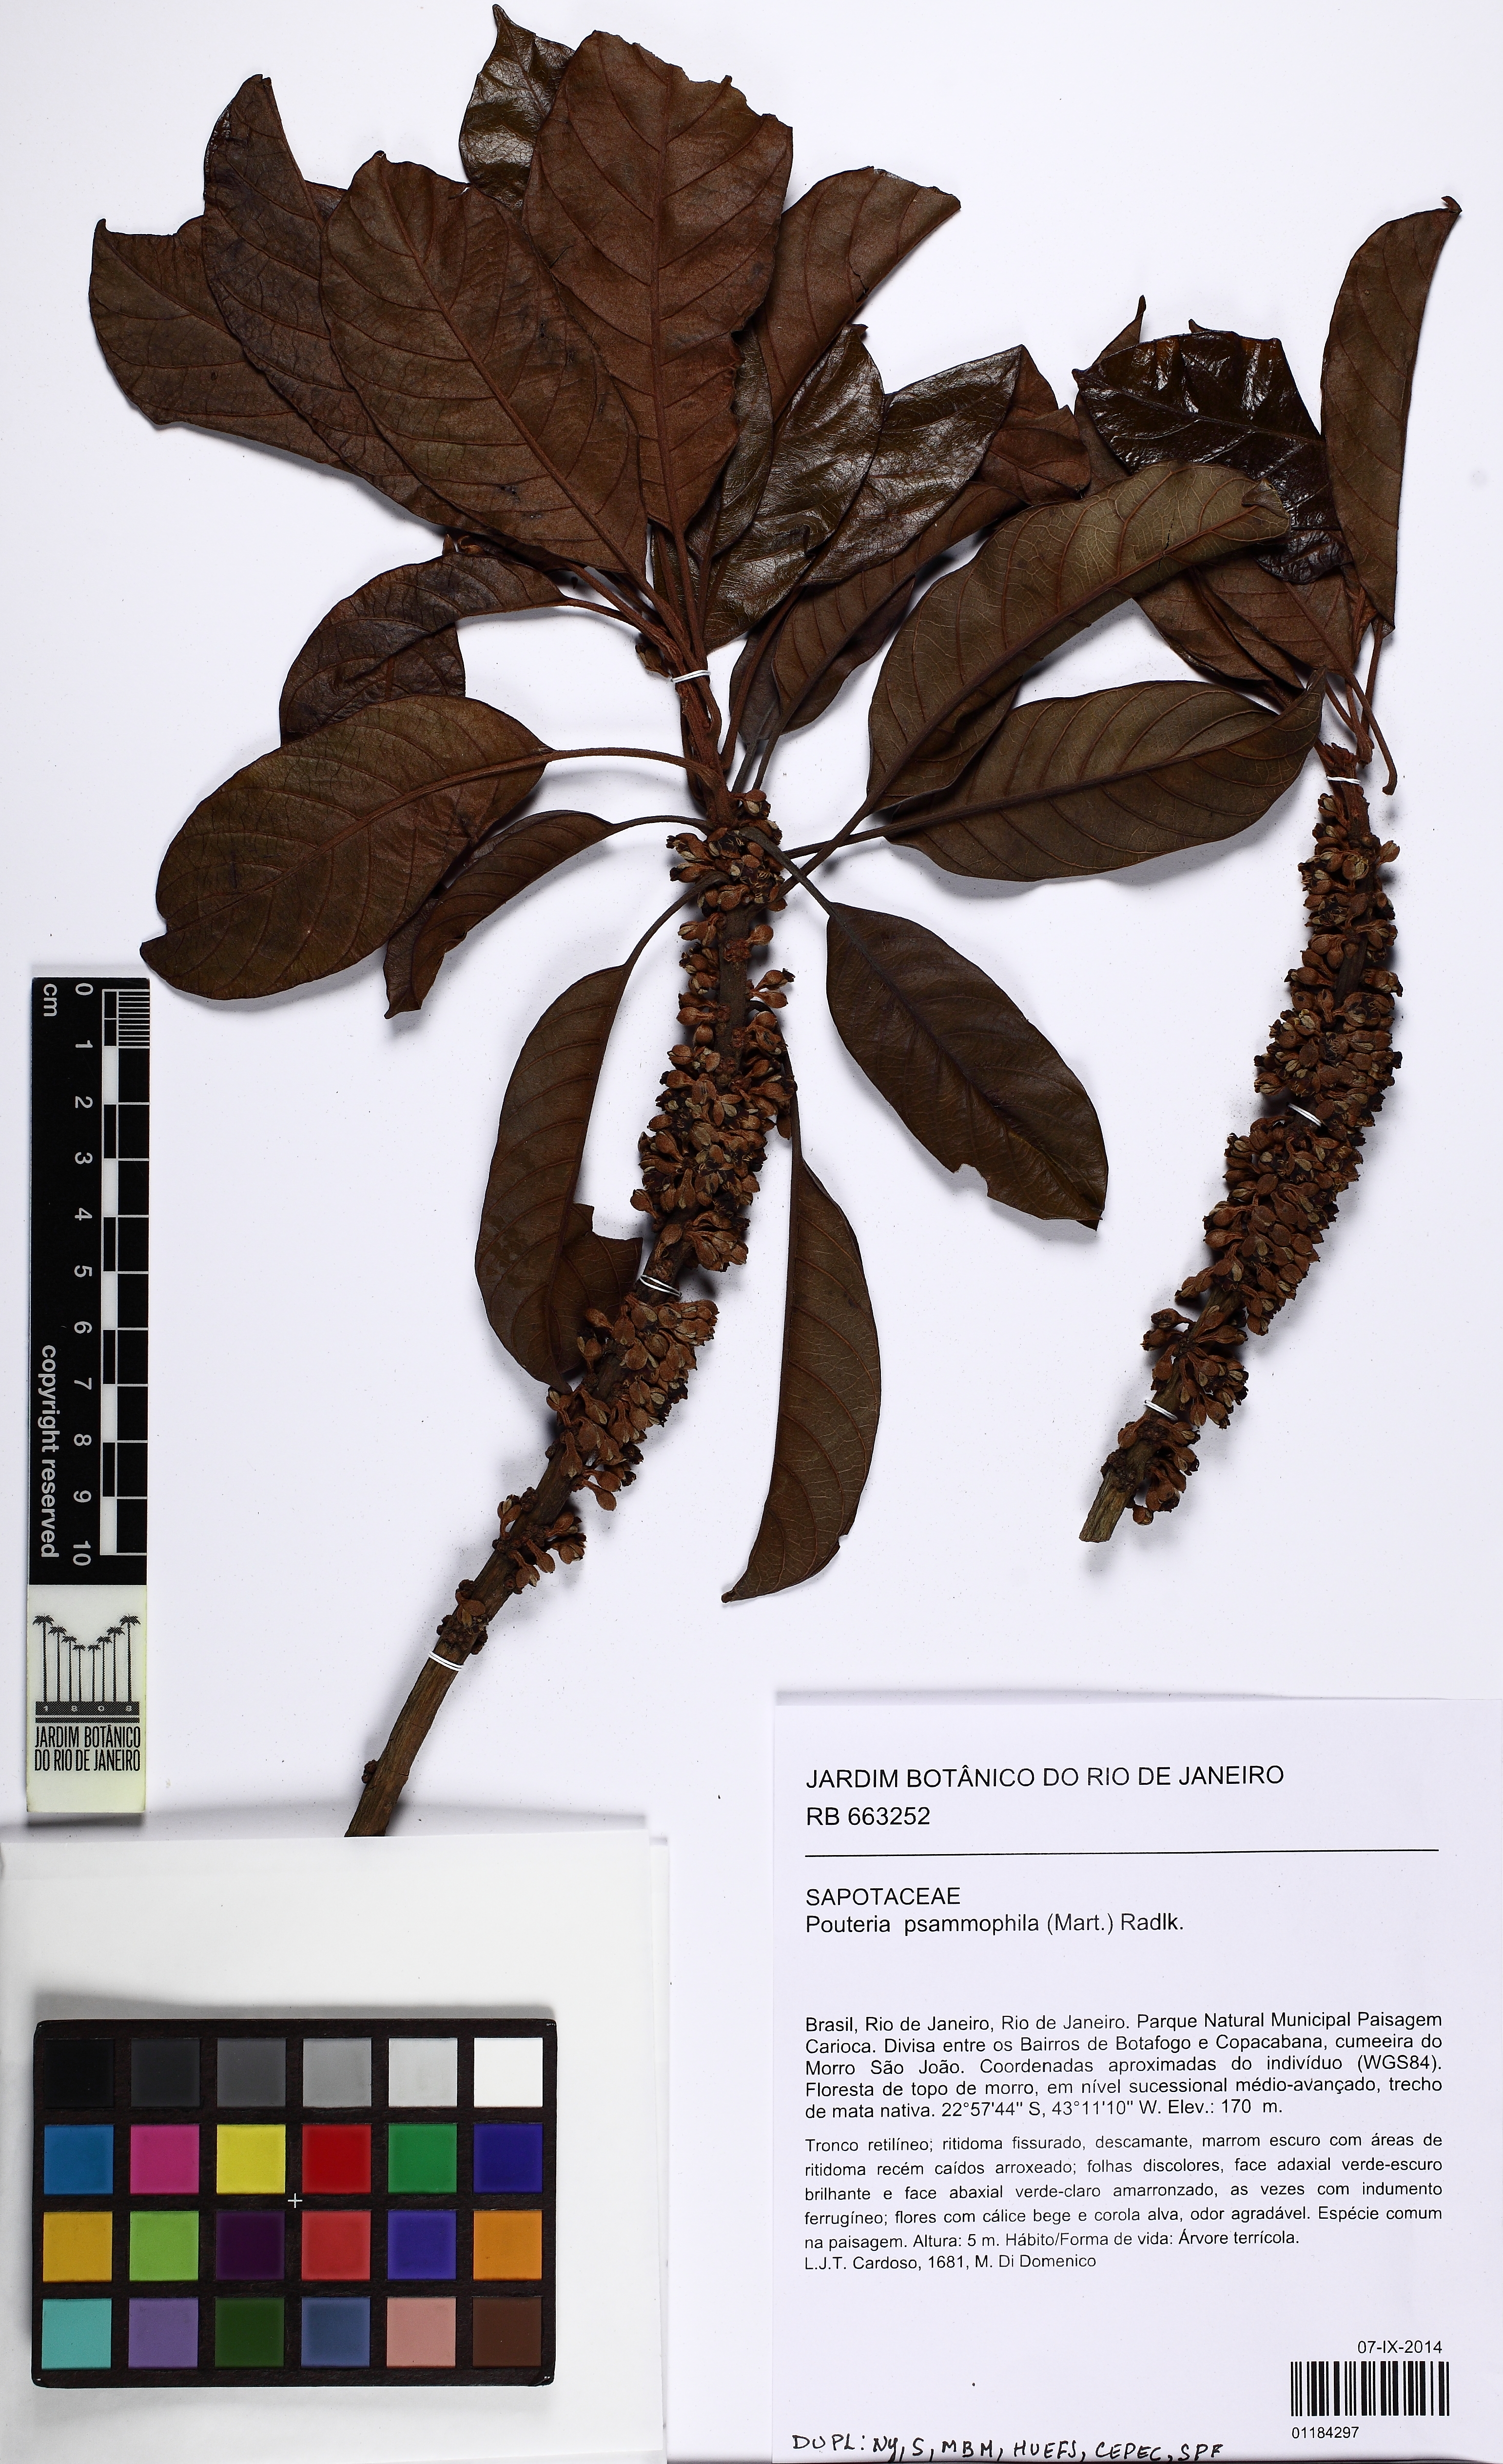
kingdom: Plantae
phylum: Tracheophyta
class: Magnoliopsida
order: Ericales
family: Sapotaceae
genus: Pouteria
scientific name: Pouteria psammophila
